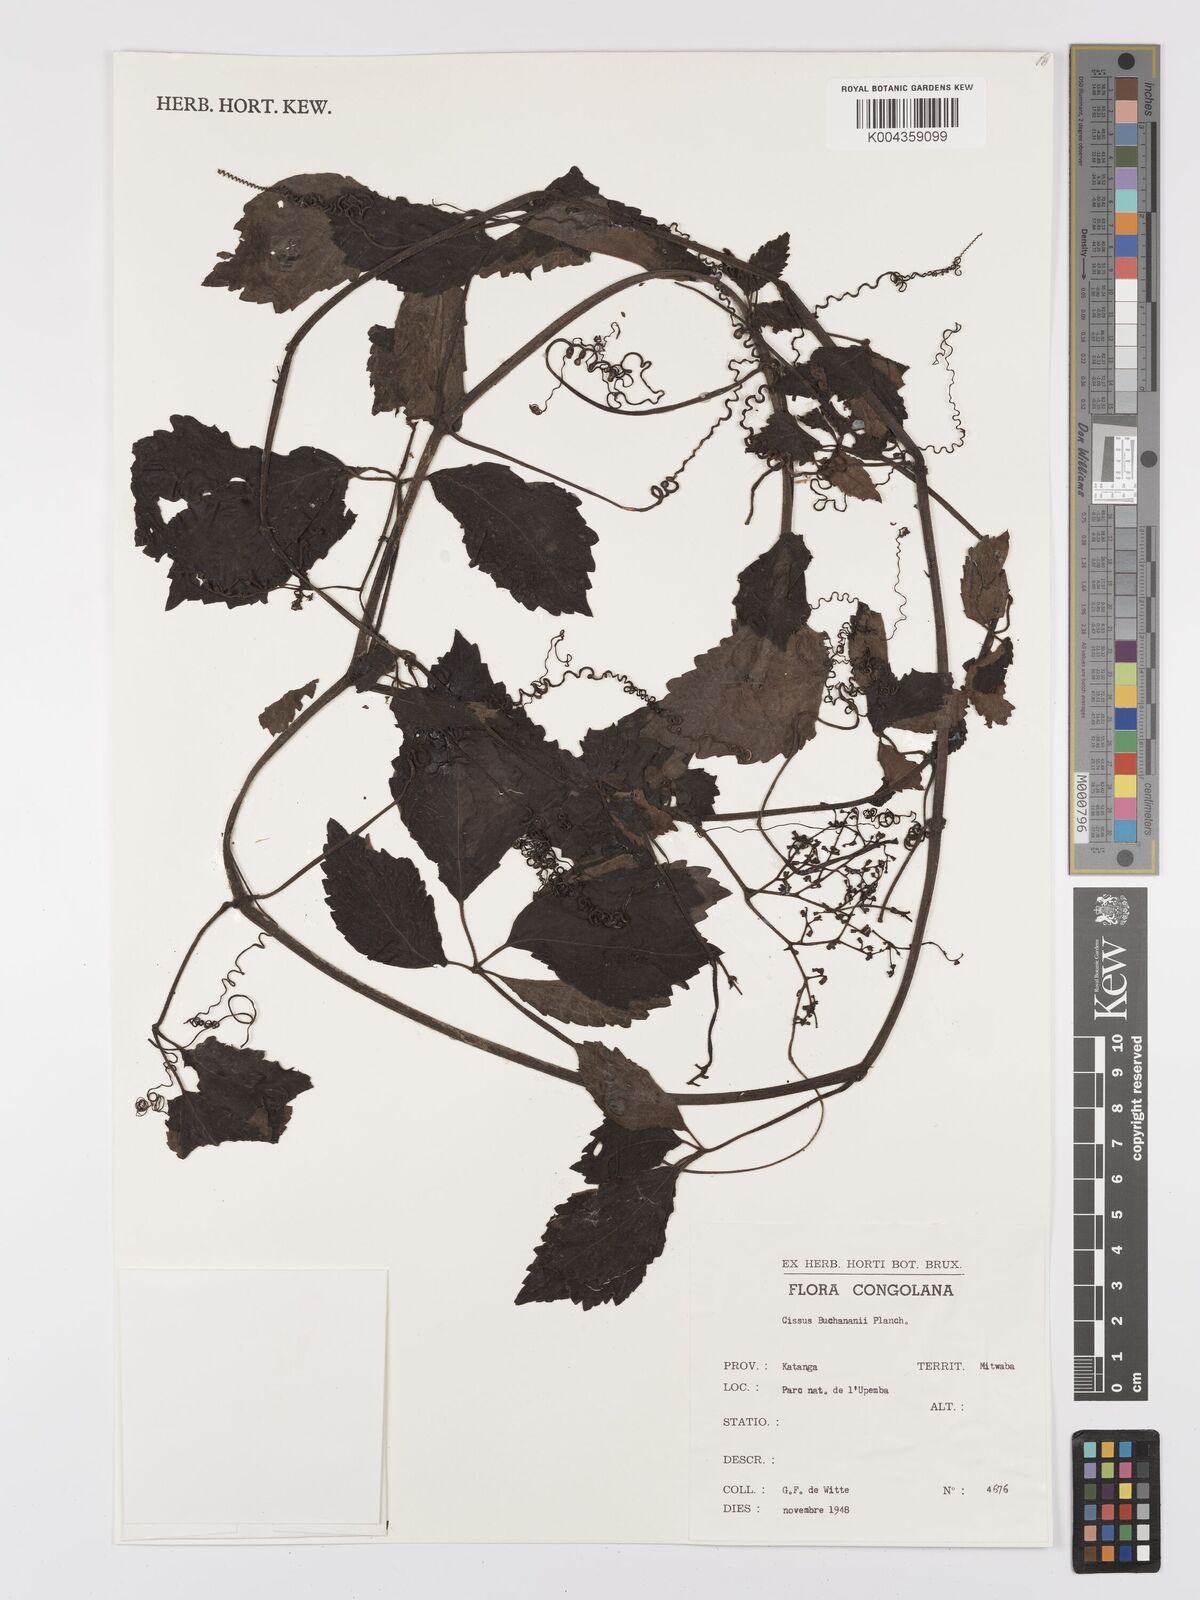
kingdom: Plantae
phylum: Tracheophyta
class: Magnoliopsida
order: Vitales
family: Vitaceae
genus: Cyphostemma
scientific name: Cyphostemma buchananii
